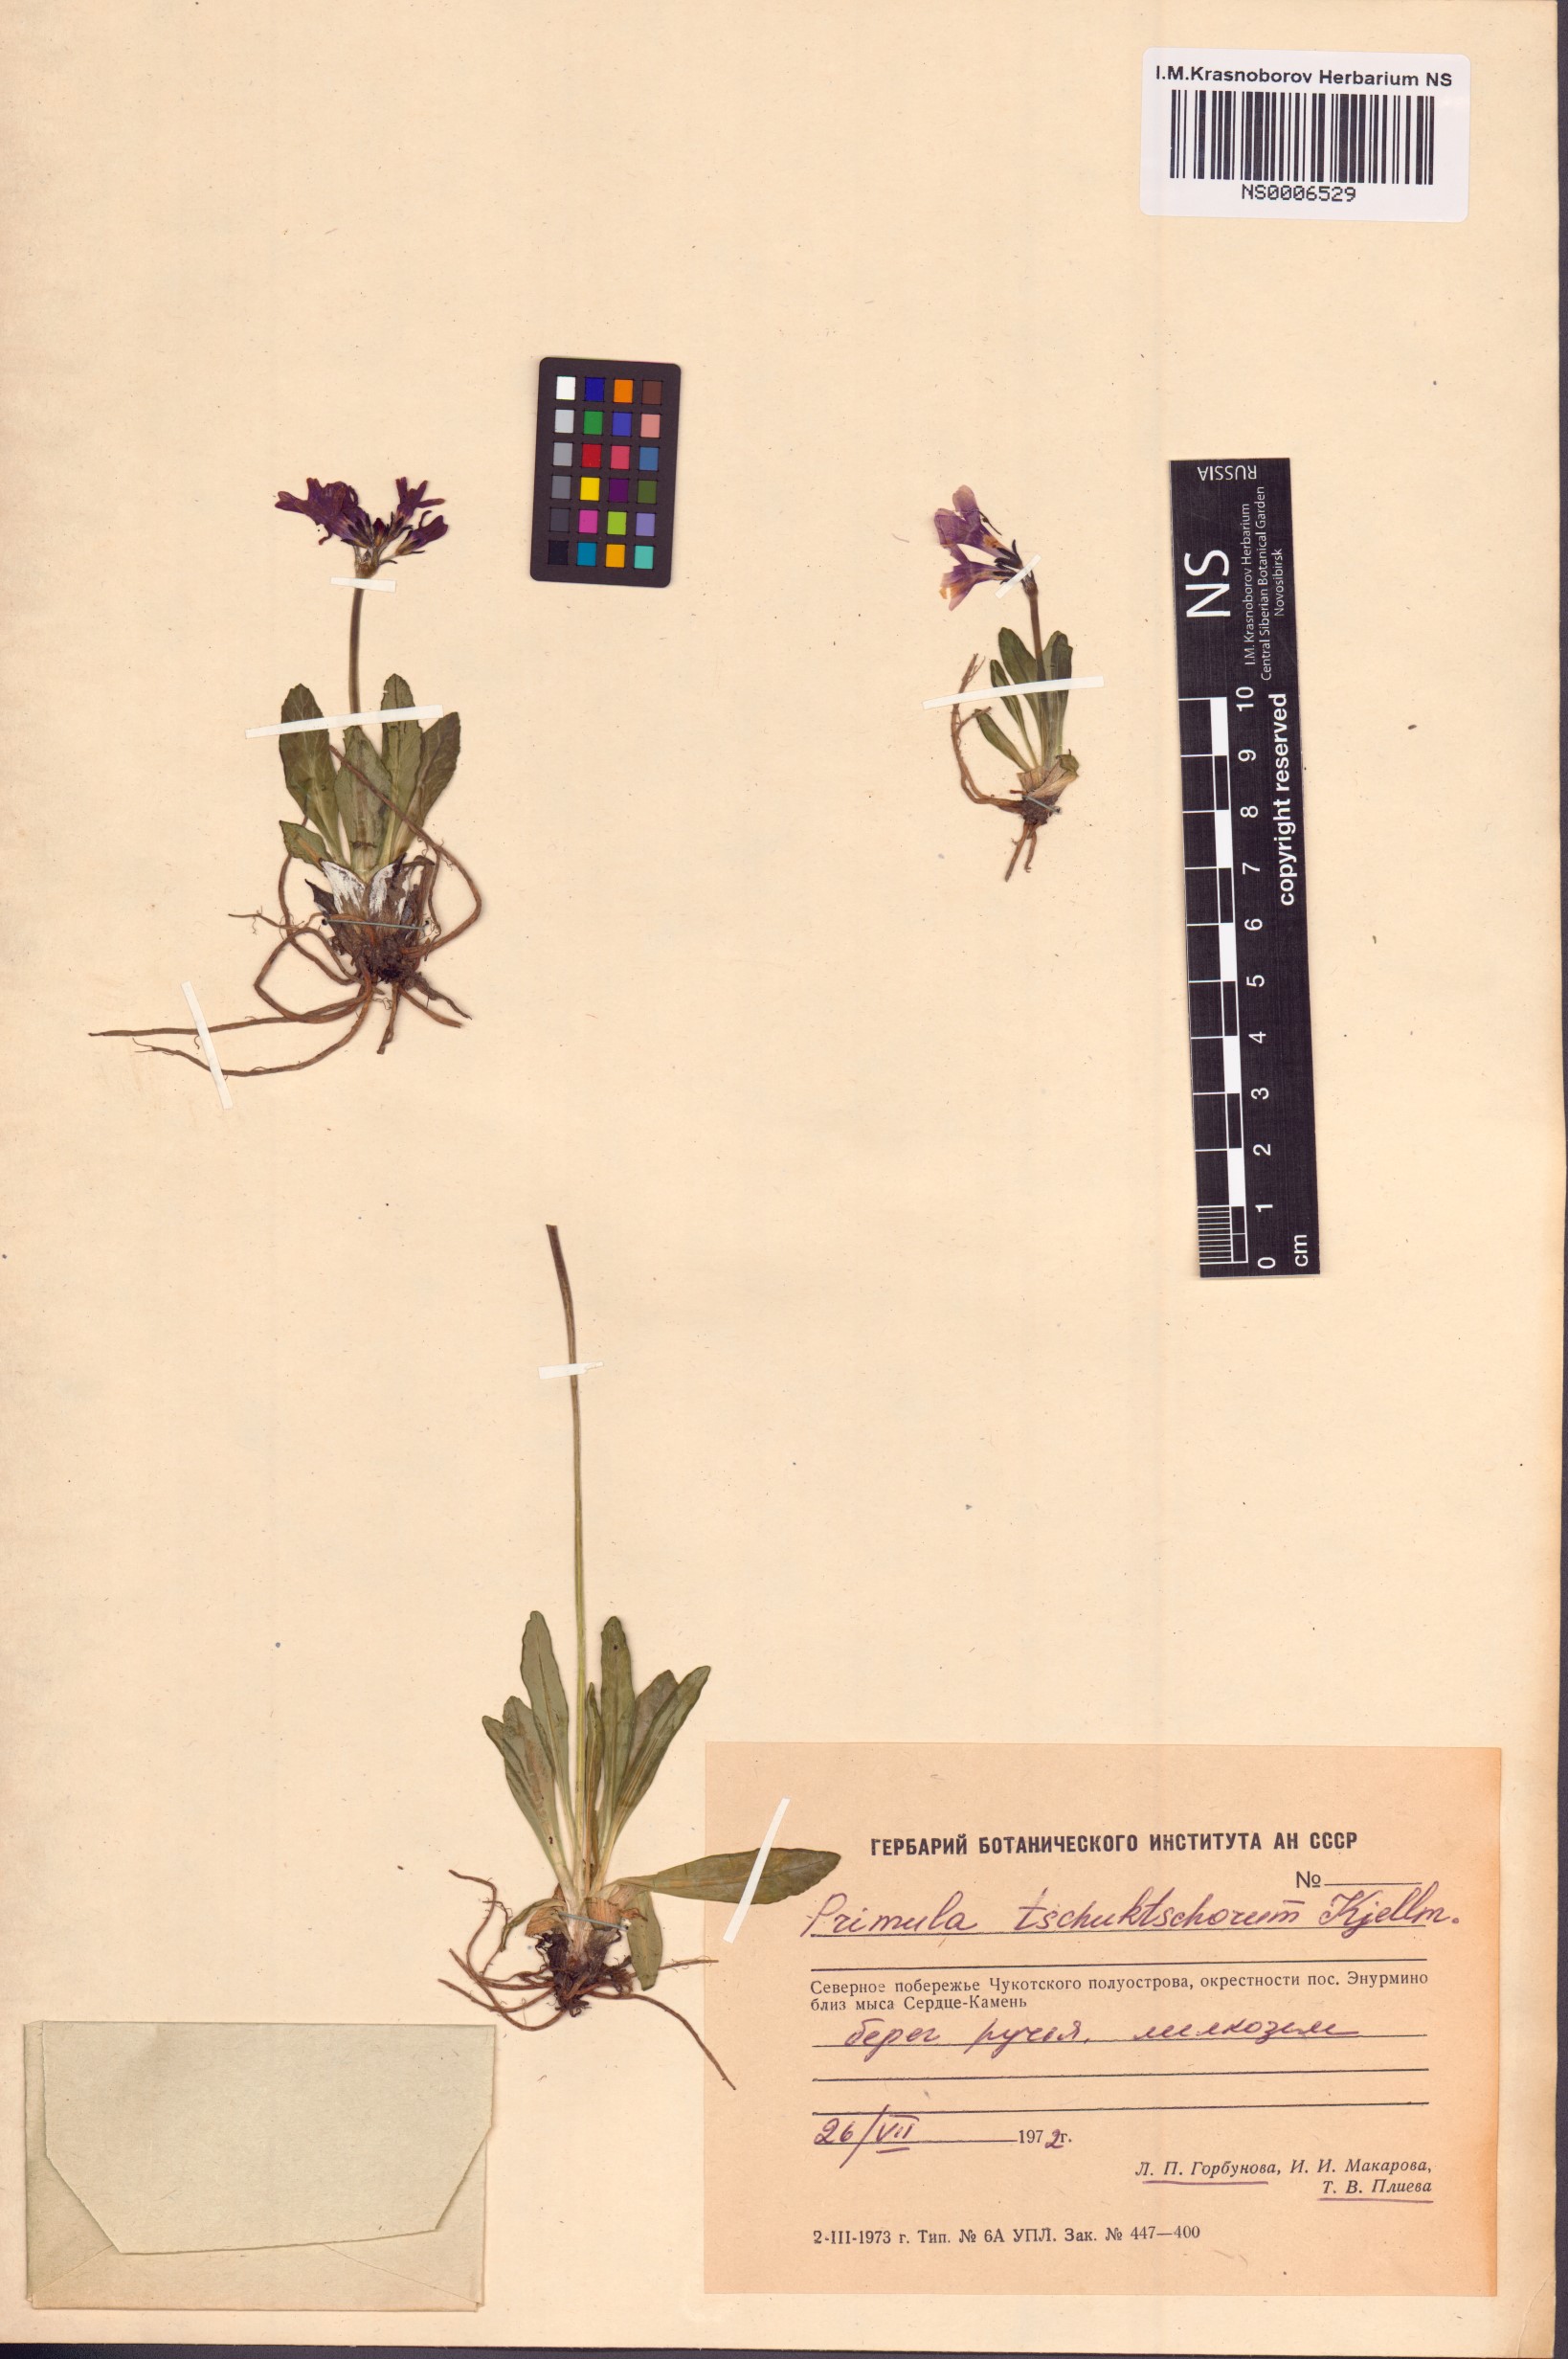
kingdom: Plantae
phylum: Tracheophyta
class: Magnoliopsida
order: Ericales
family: Primulaceae
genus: Primula
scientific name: Primula tschuktschorum
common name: Chukchi primrose
